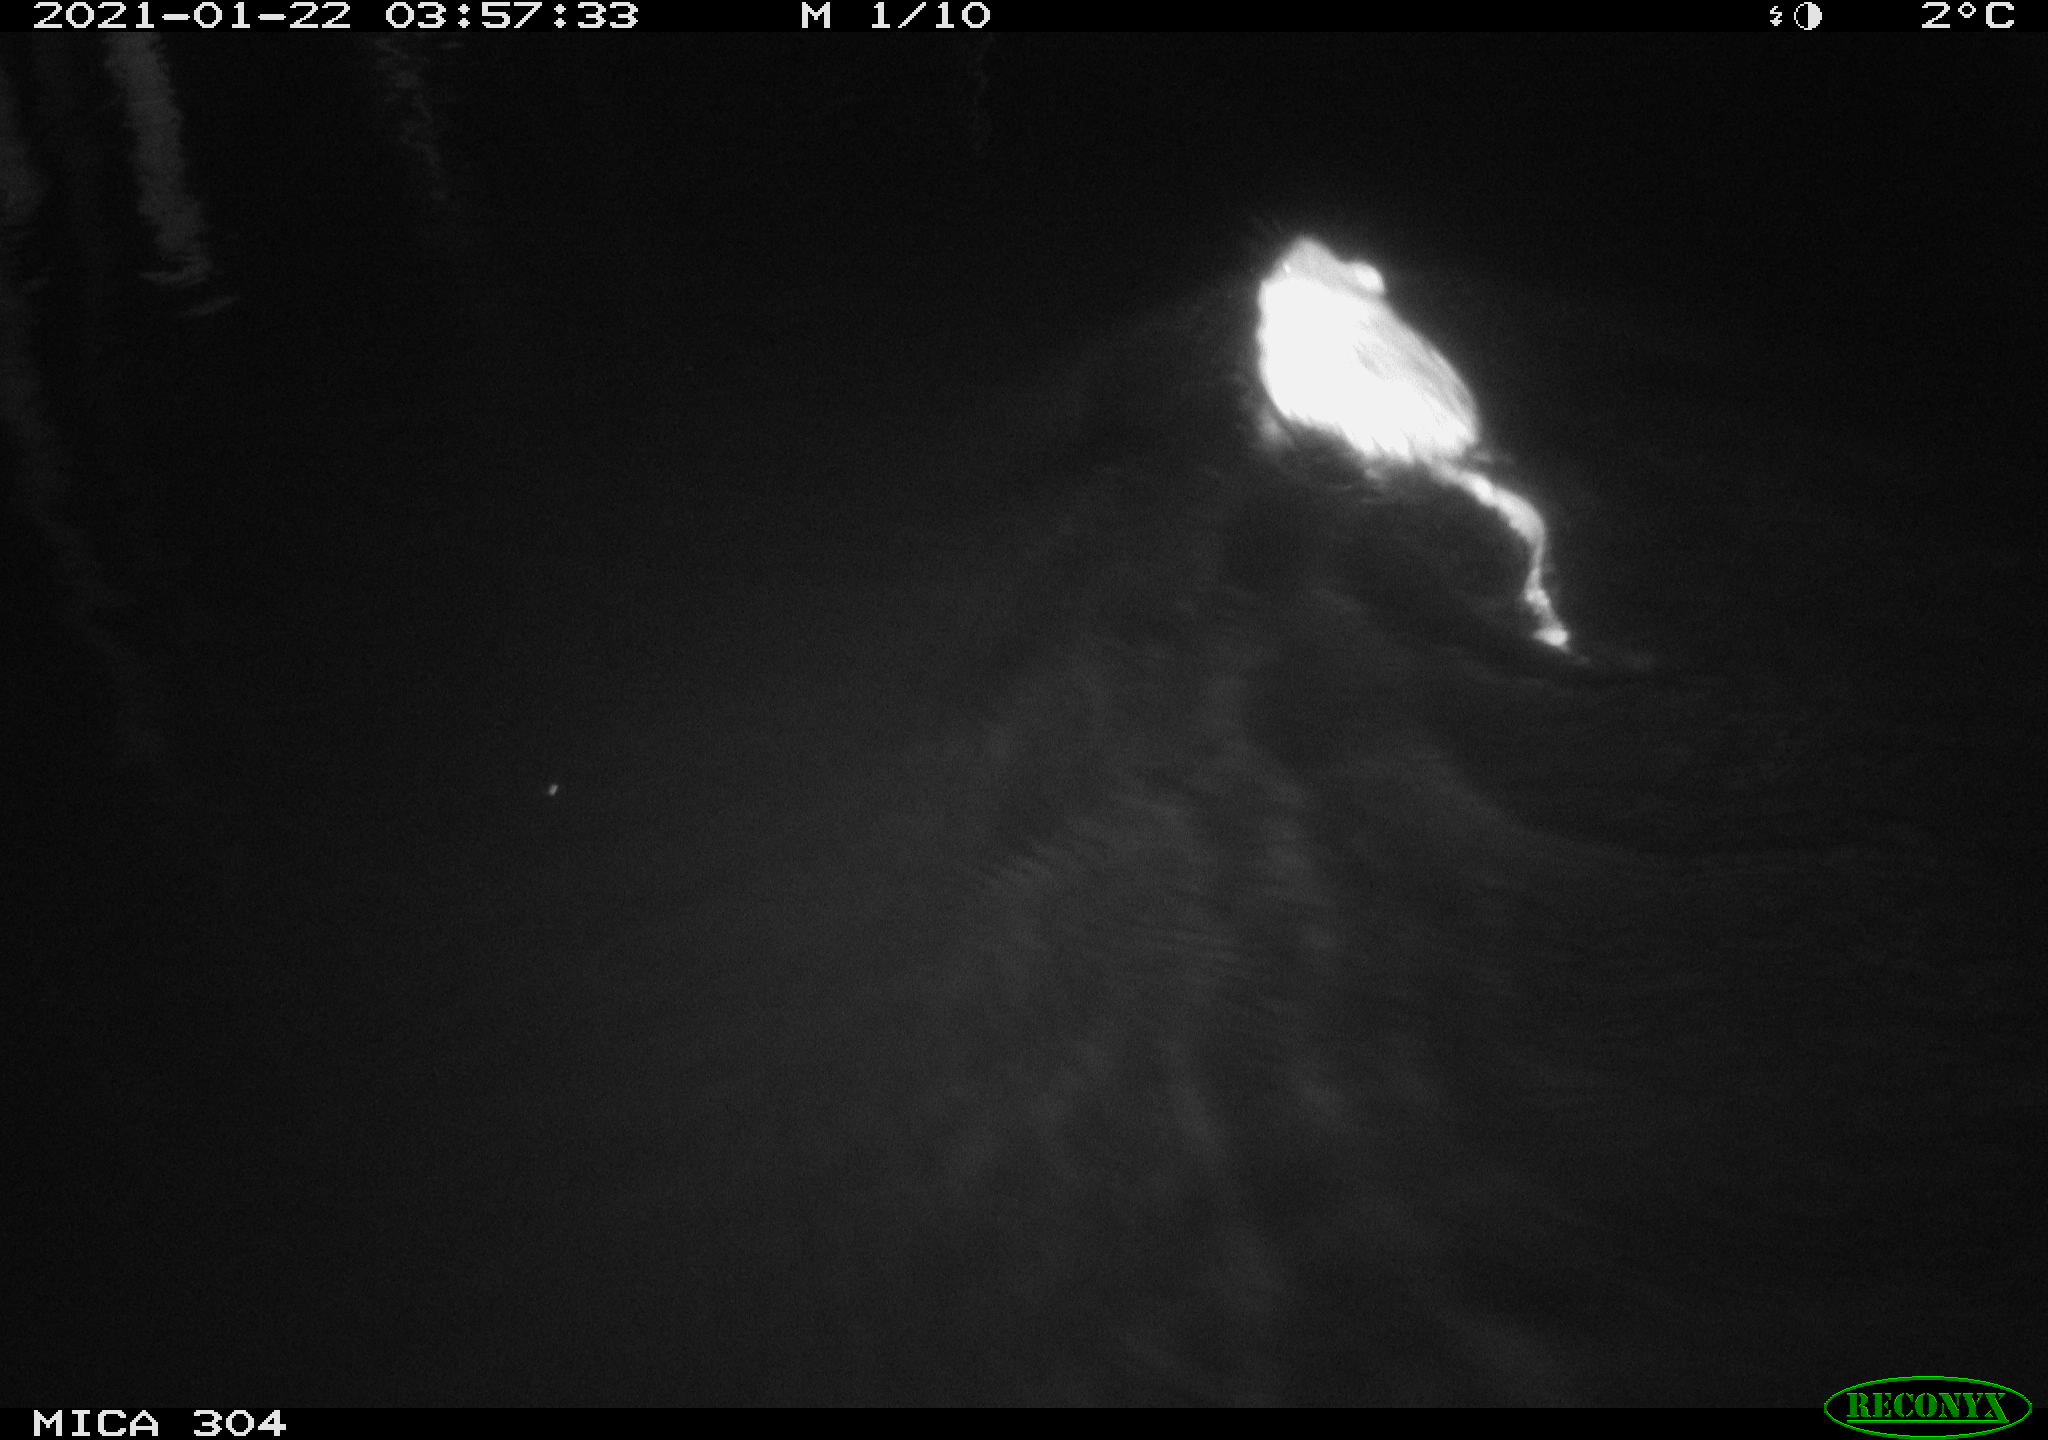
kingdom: Animalia
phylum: Chordata
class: Mammalia
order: Rodentia
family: Cricetidae
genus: Ondatra
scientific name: Ondatra zibethicus
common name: Muskrat
